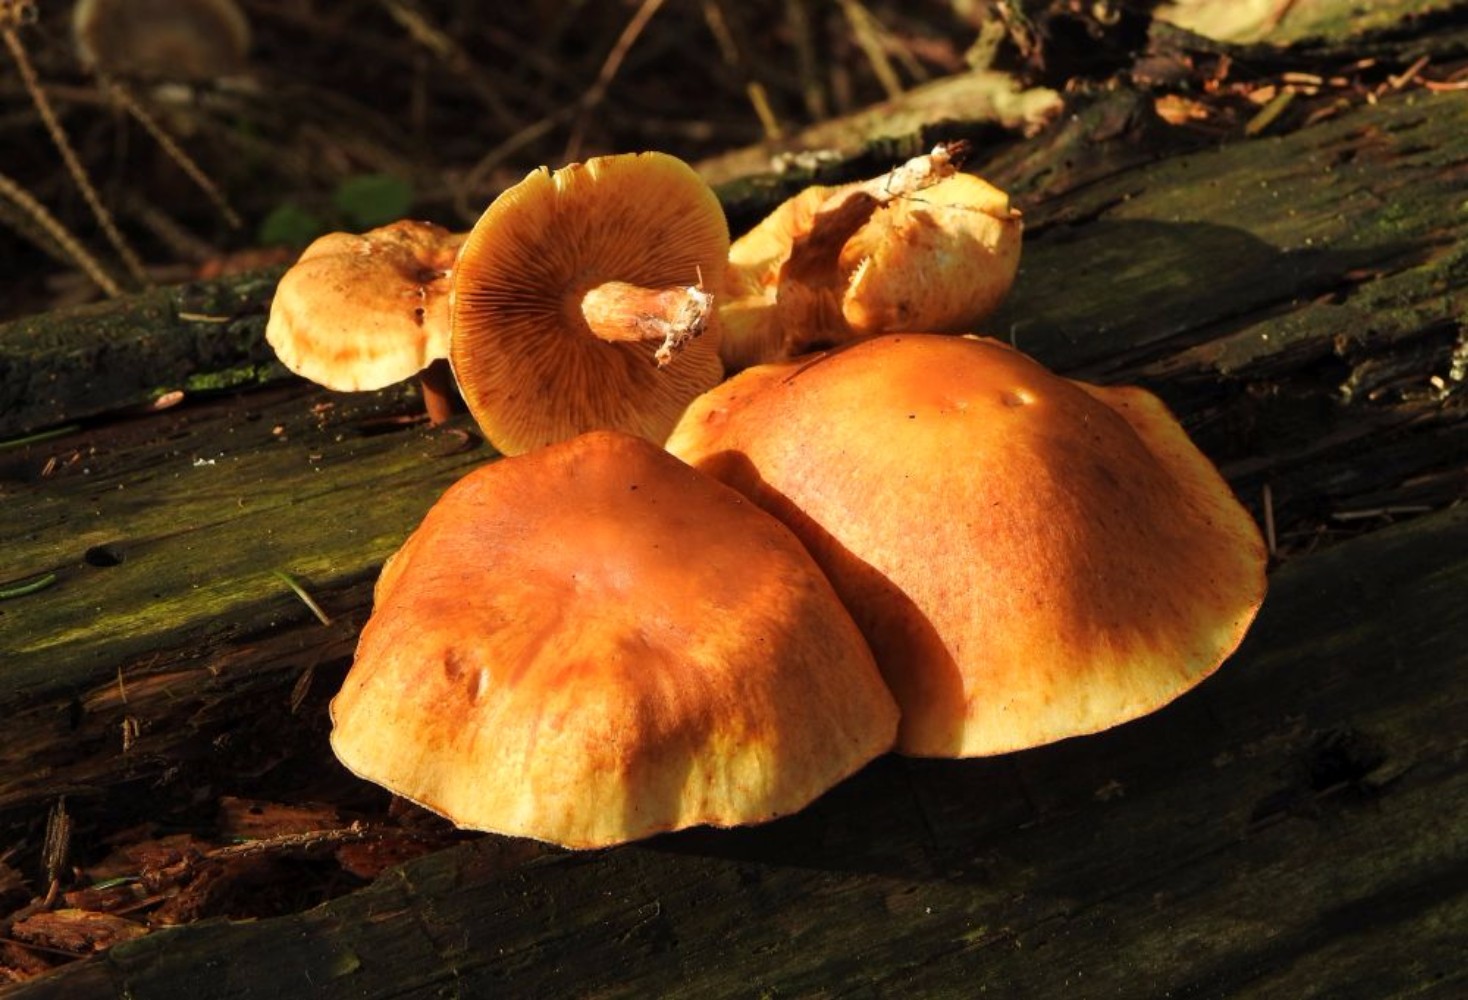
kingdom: Fungi
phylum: Basidiomycota
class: Agaricomycetes
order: Agaricales
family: Hymenogastraceae
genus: Gymnopilus
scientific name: Gymnopilus penetrans
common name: plettet flammehat
